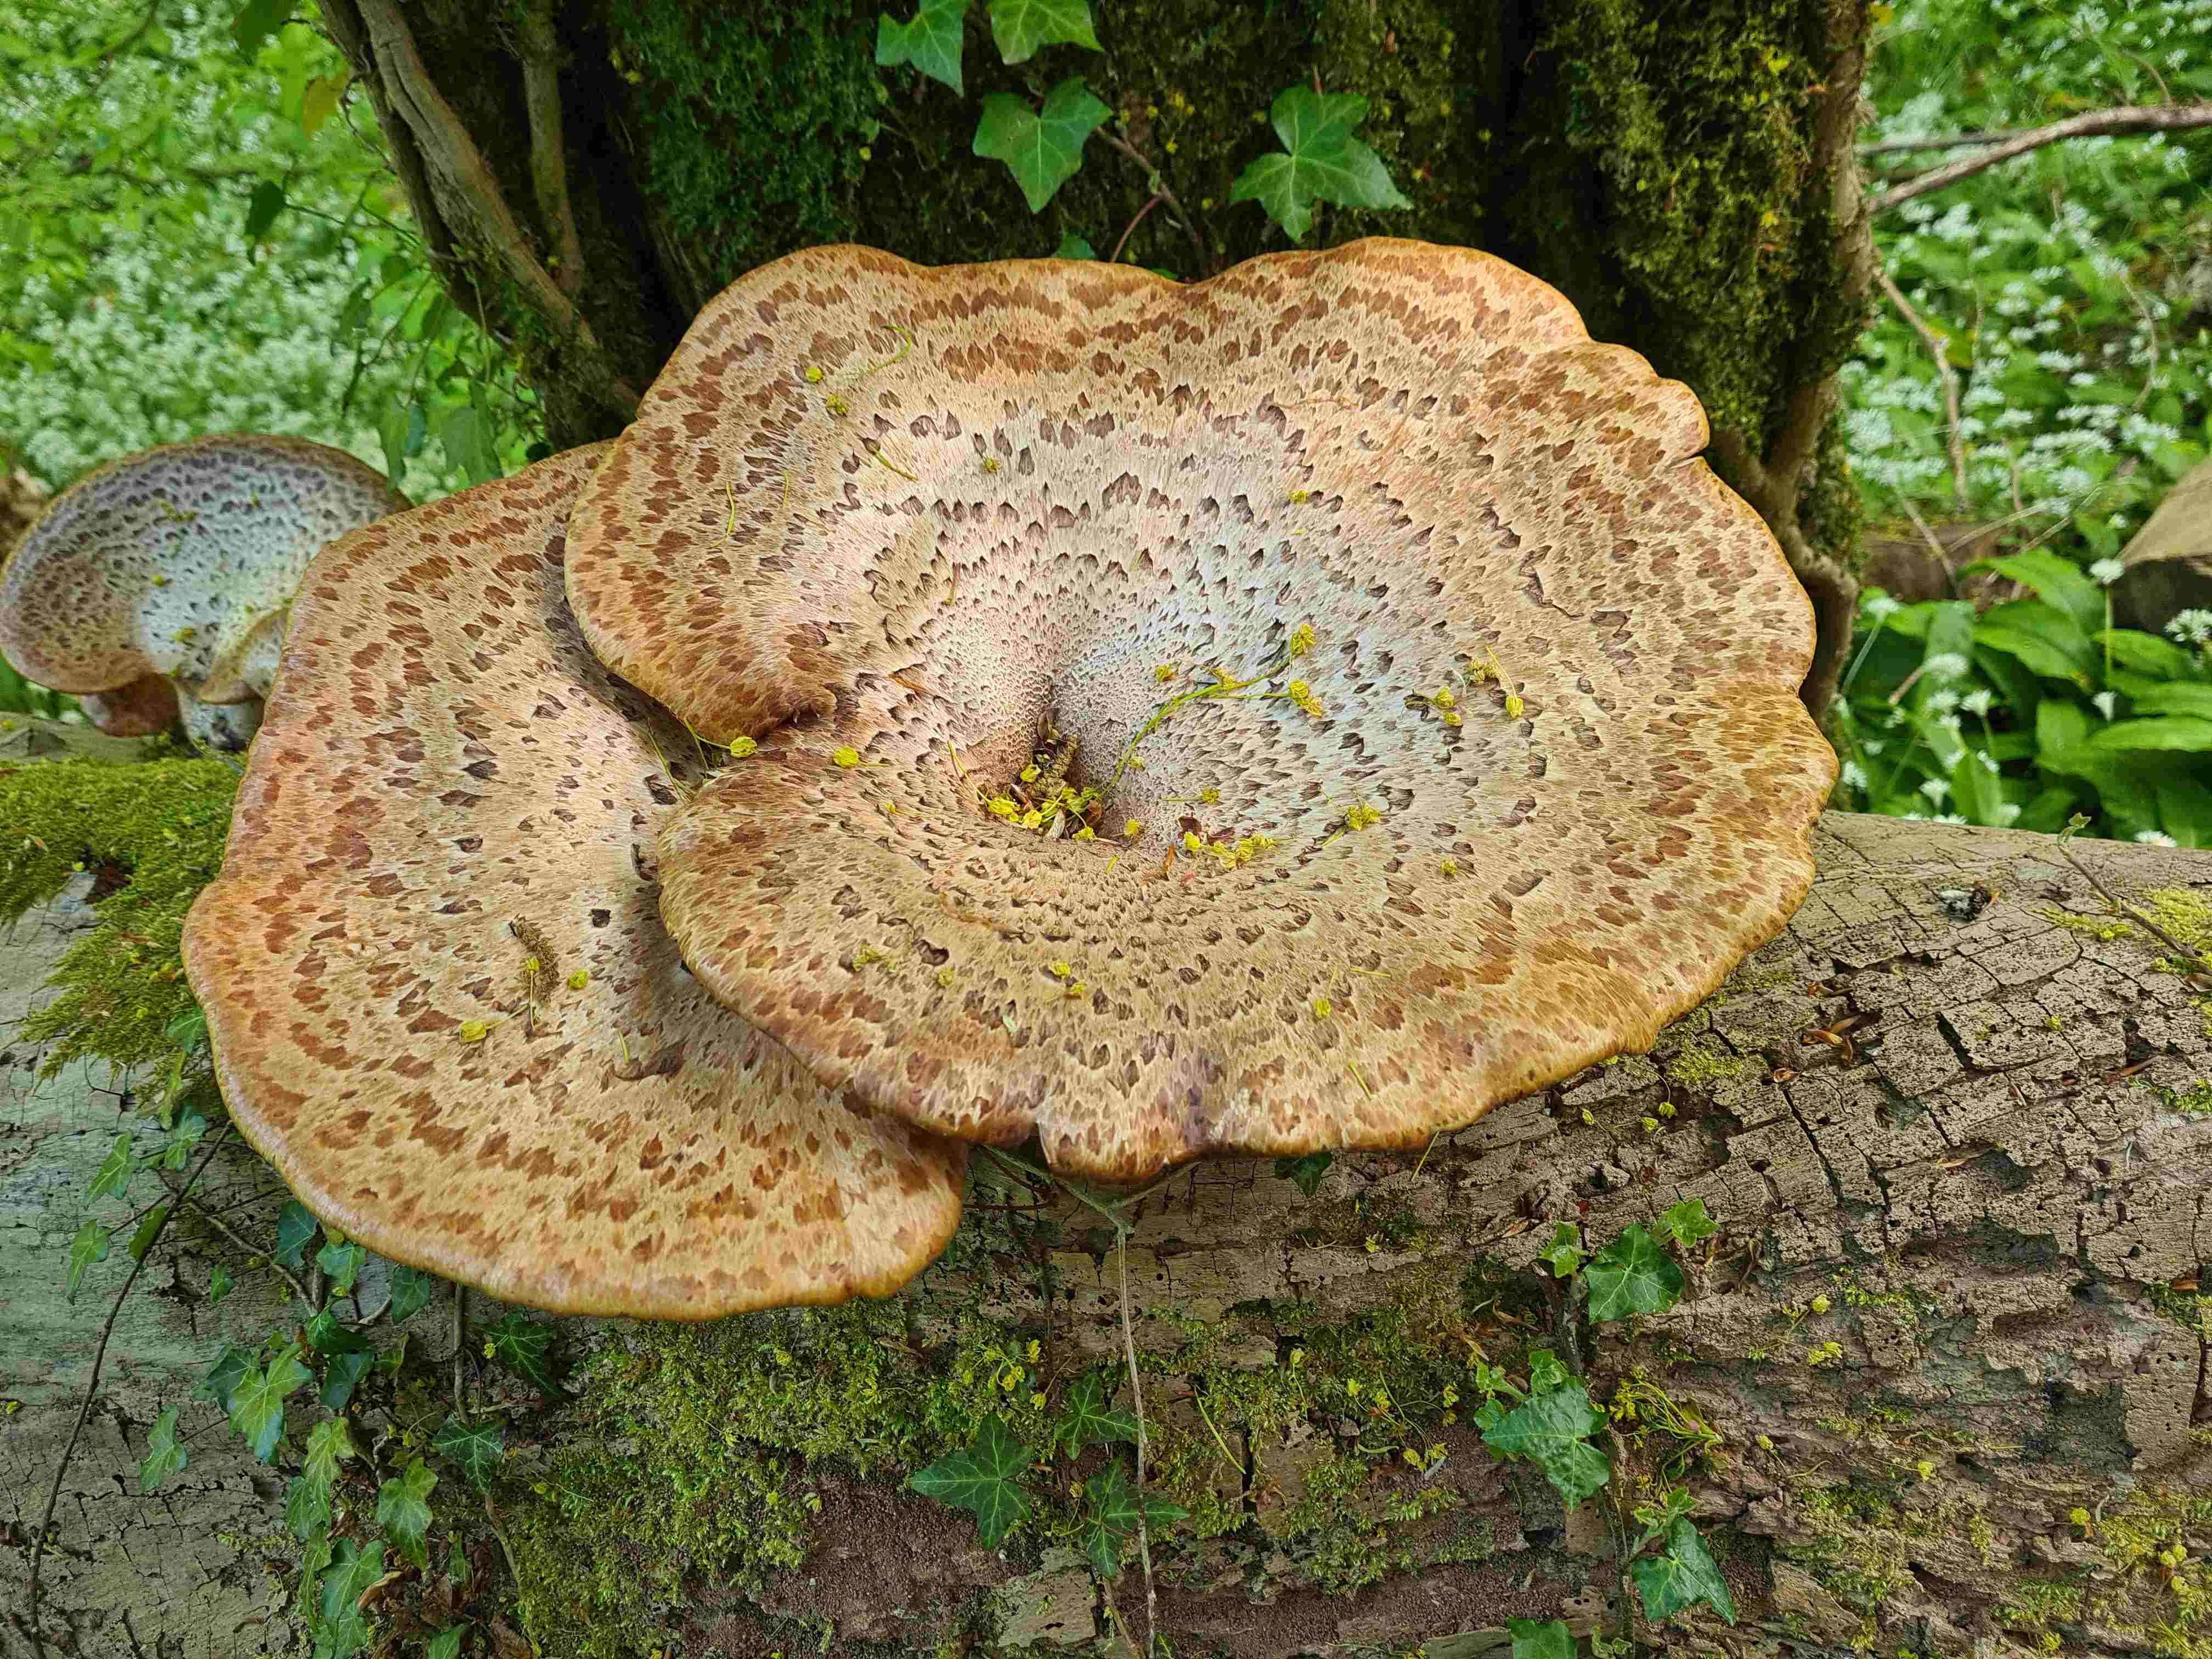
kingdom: Fungi
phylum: Basidiomycota
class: Agaricomycetes
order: Polyporales
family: Polyporaceae
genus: Cerioporus
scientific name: Cerioporus squamosus
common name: skællet stilkporesvamp
